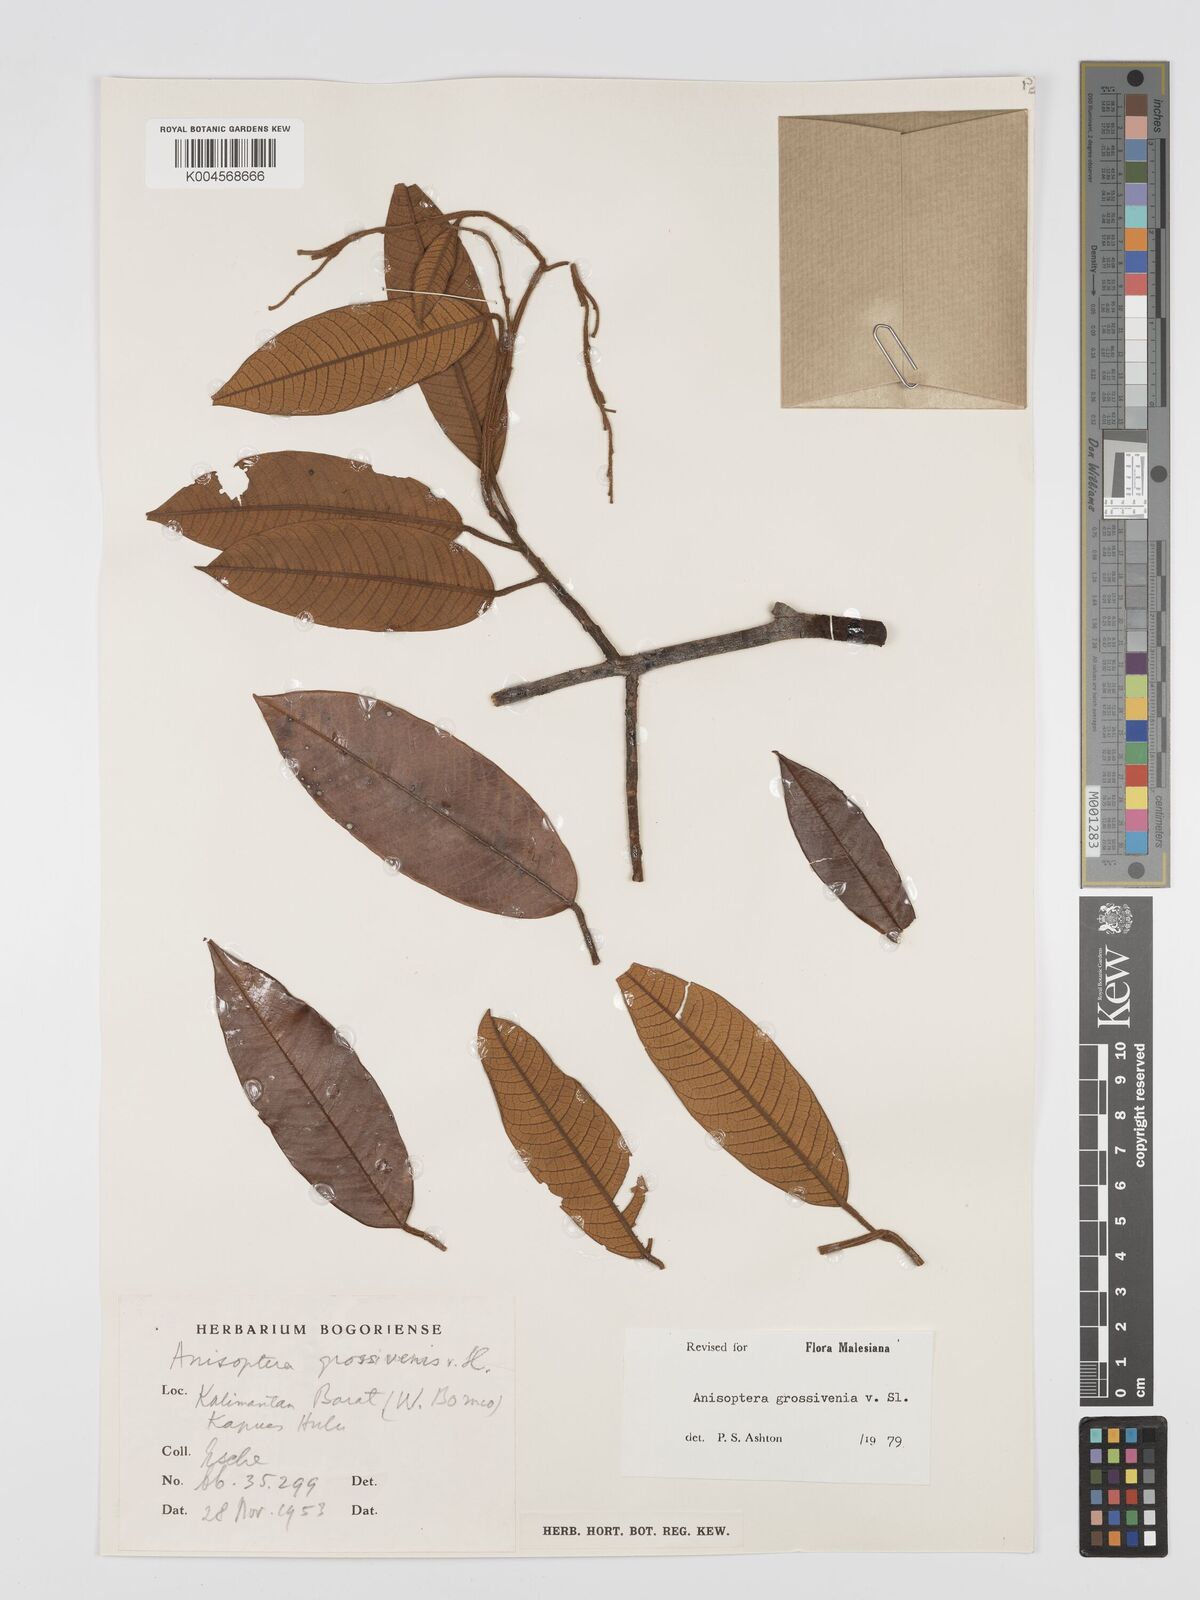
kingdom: Plantae
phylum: Tracheophyta
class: Magnoliopsida
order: Malvales
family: Dipterocarpaceae
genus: Anisoptera
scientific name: Anisoptera grossivenia
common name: Krabak
